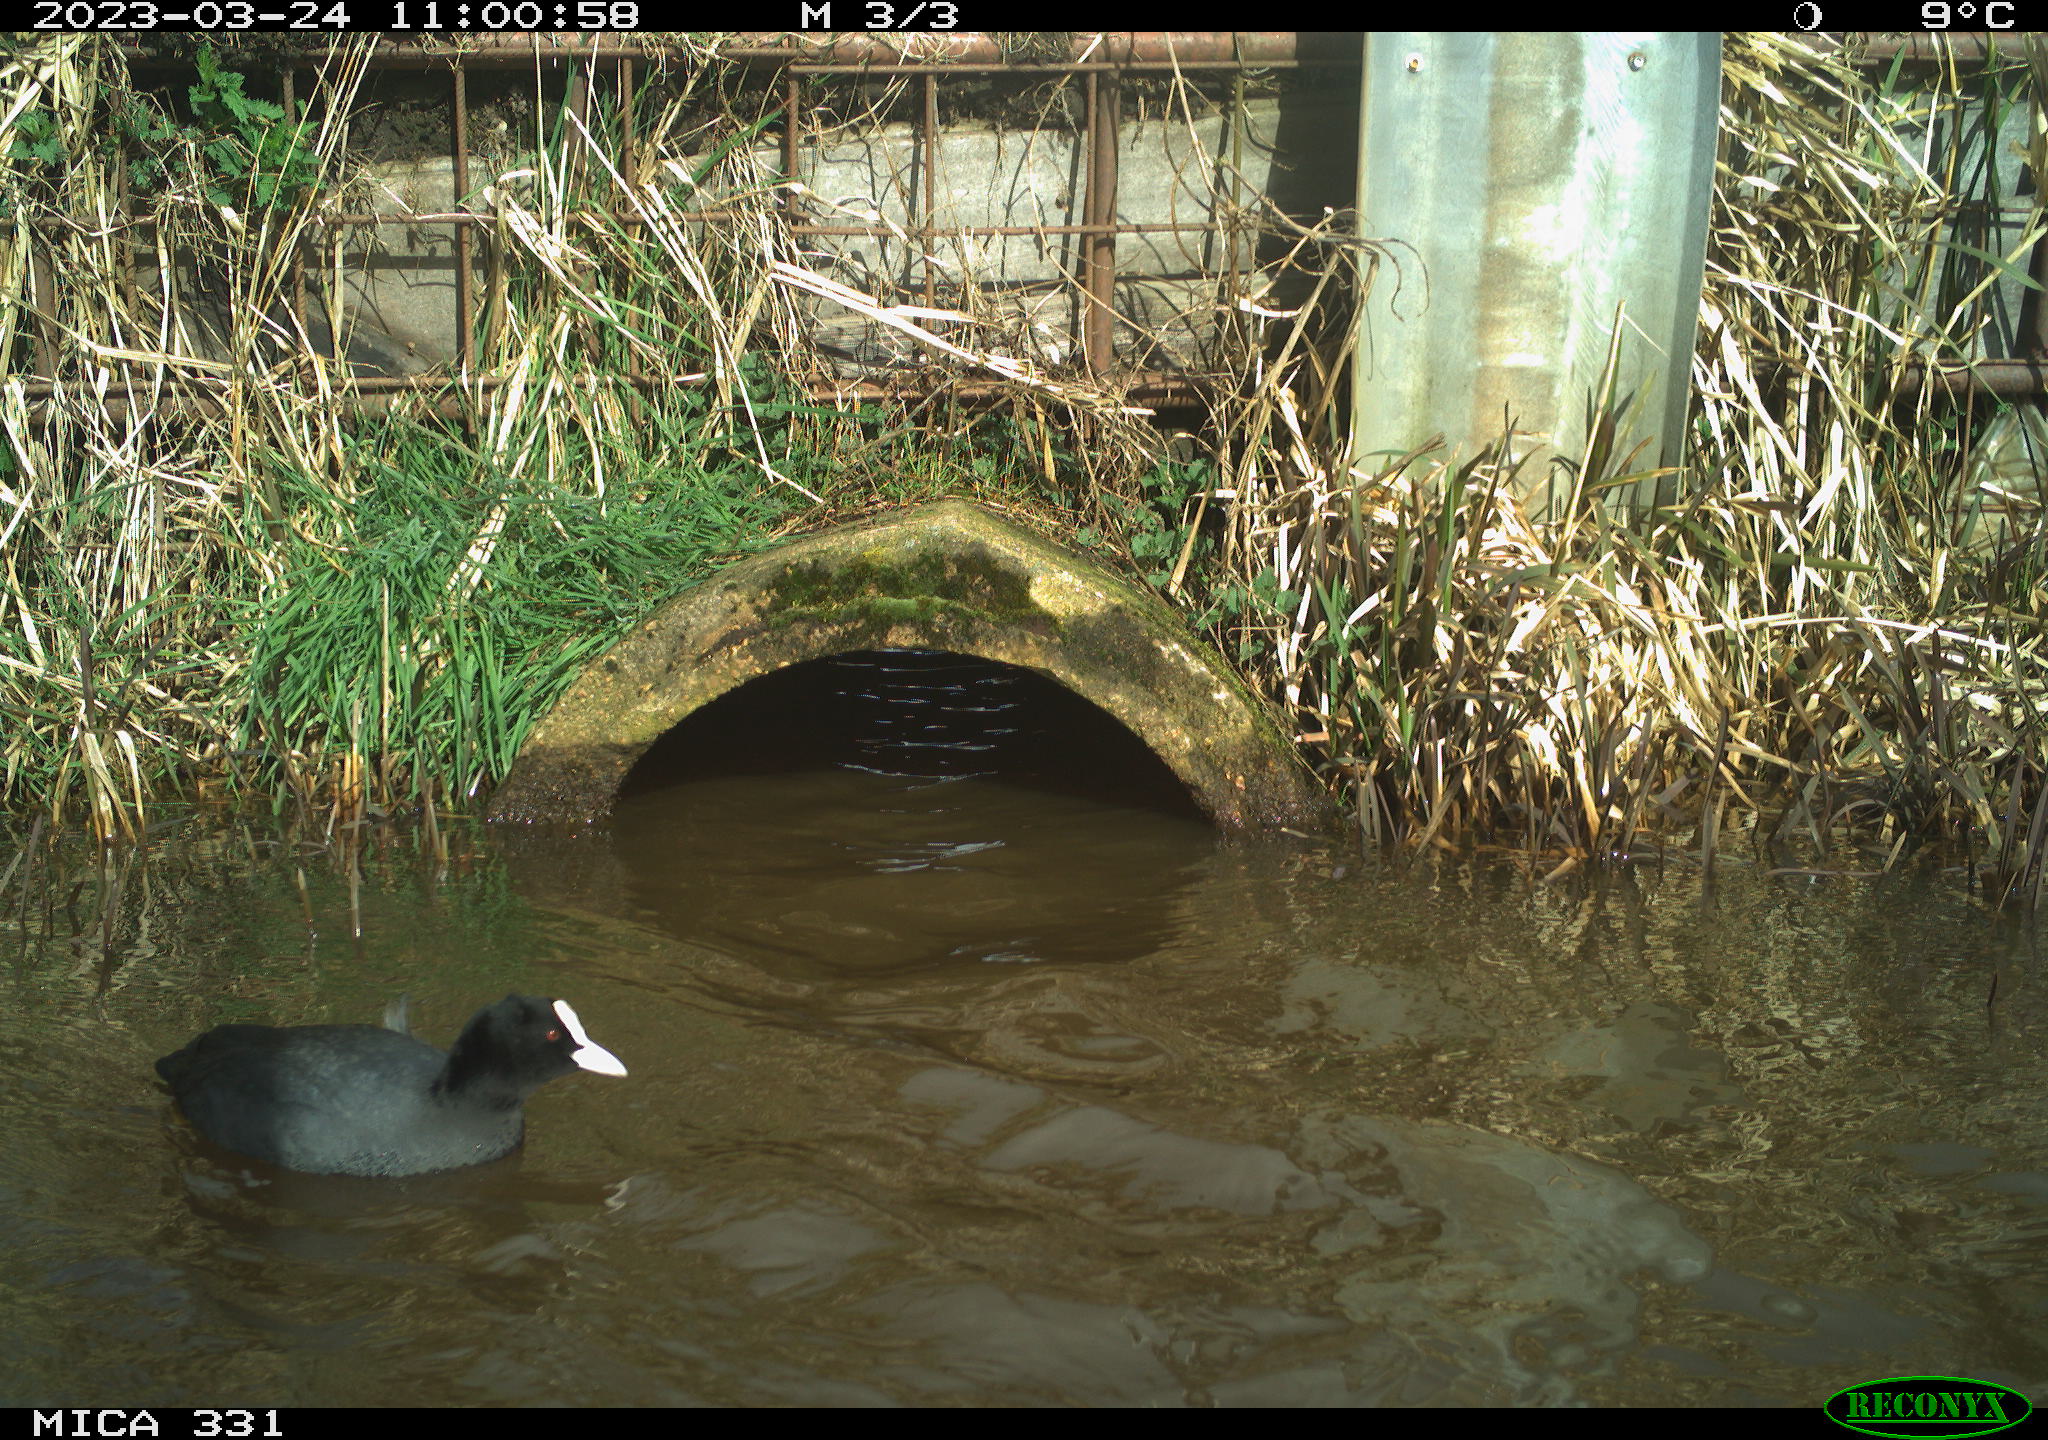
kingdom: Animalia
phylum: Chordata
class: Aves
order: Gruiformes
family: Rallidae
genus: Fulica
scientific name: Fulica atra
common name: Eurasian coot
